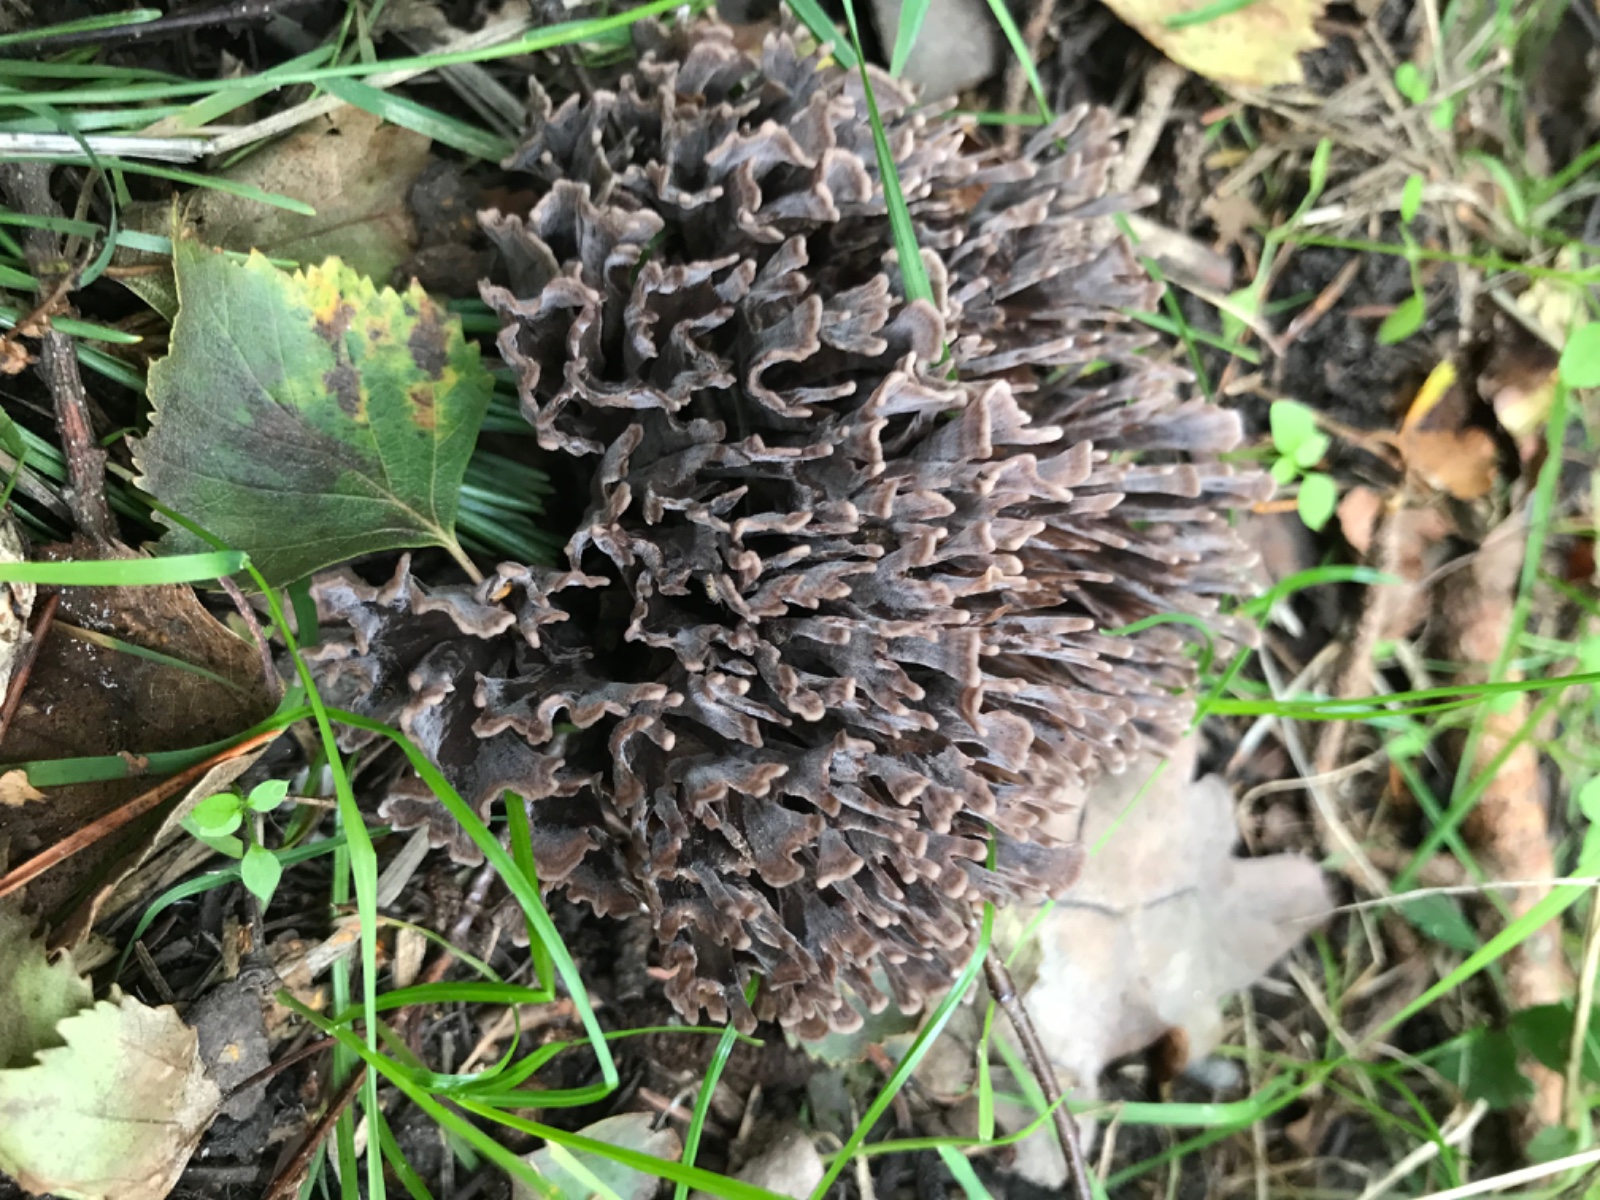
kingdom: Fungi
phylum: Basidiomycota
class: Agaricomycetes
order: Thelephorales
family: Thelephoraceae
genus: Thelephora
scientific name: Thelephora palmata
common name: grenet frynsesvamp
